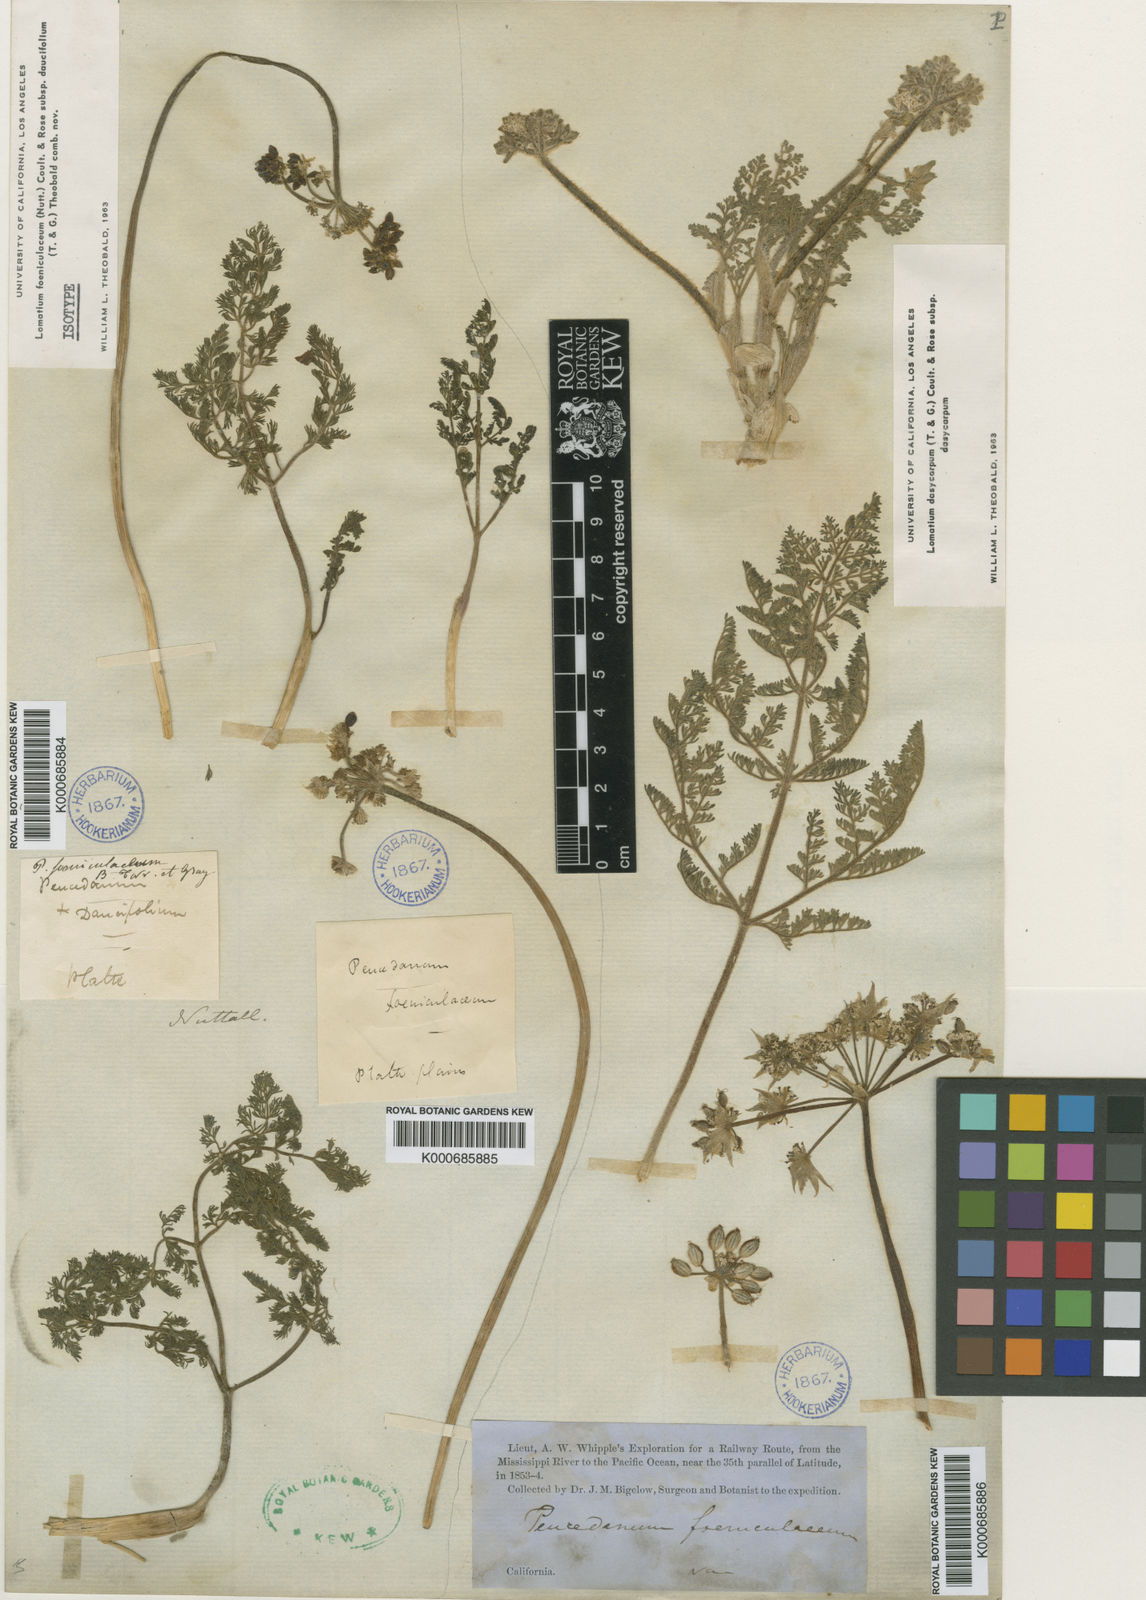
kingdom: Plantae
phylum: Tracheophyta
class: Magnoliopsida
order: Apiales
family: Apiaceae
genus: Lomatium
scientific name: Lomatium foeniculaceum
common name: Desert-parsley
